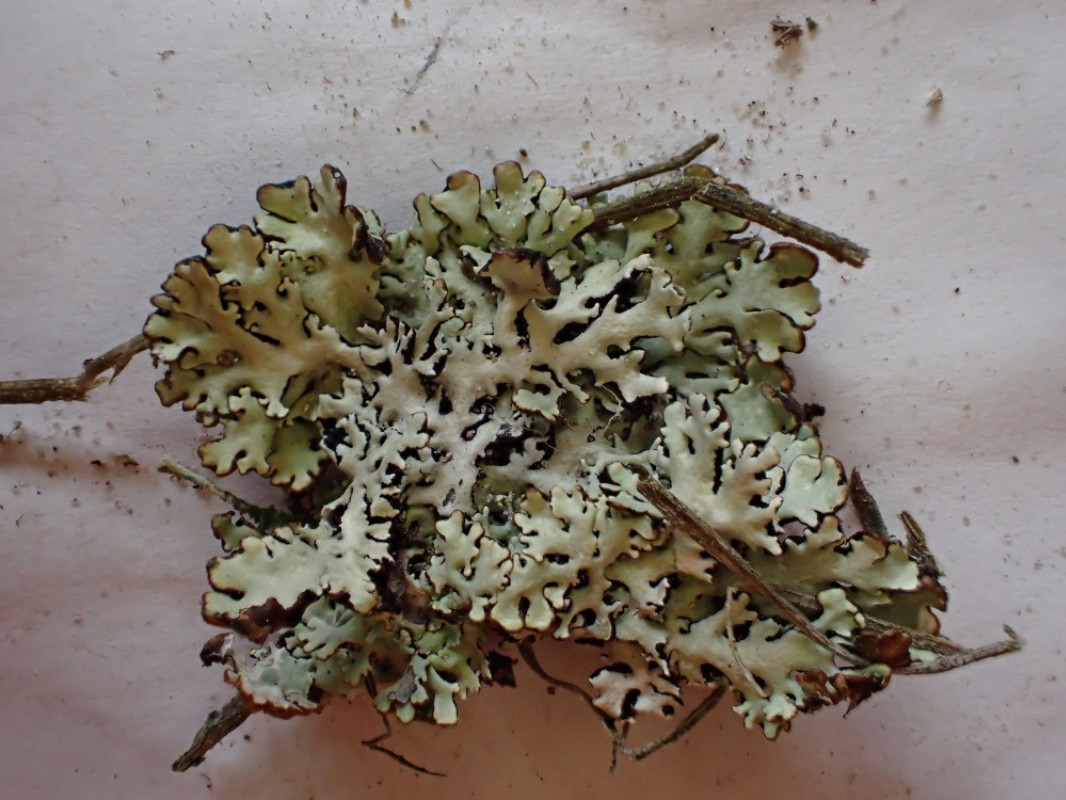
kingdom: Fungi
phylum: Ascomycota
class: Lecanoromycetes
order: Lecanorales
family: Parmeliaceae
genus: Hypogymnia
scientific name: Hypogymnia physodes
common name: almindelig kvistlav
